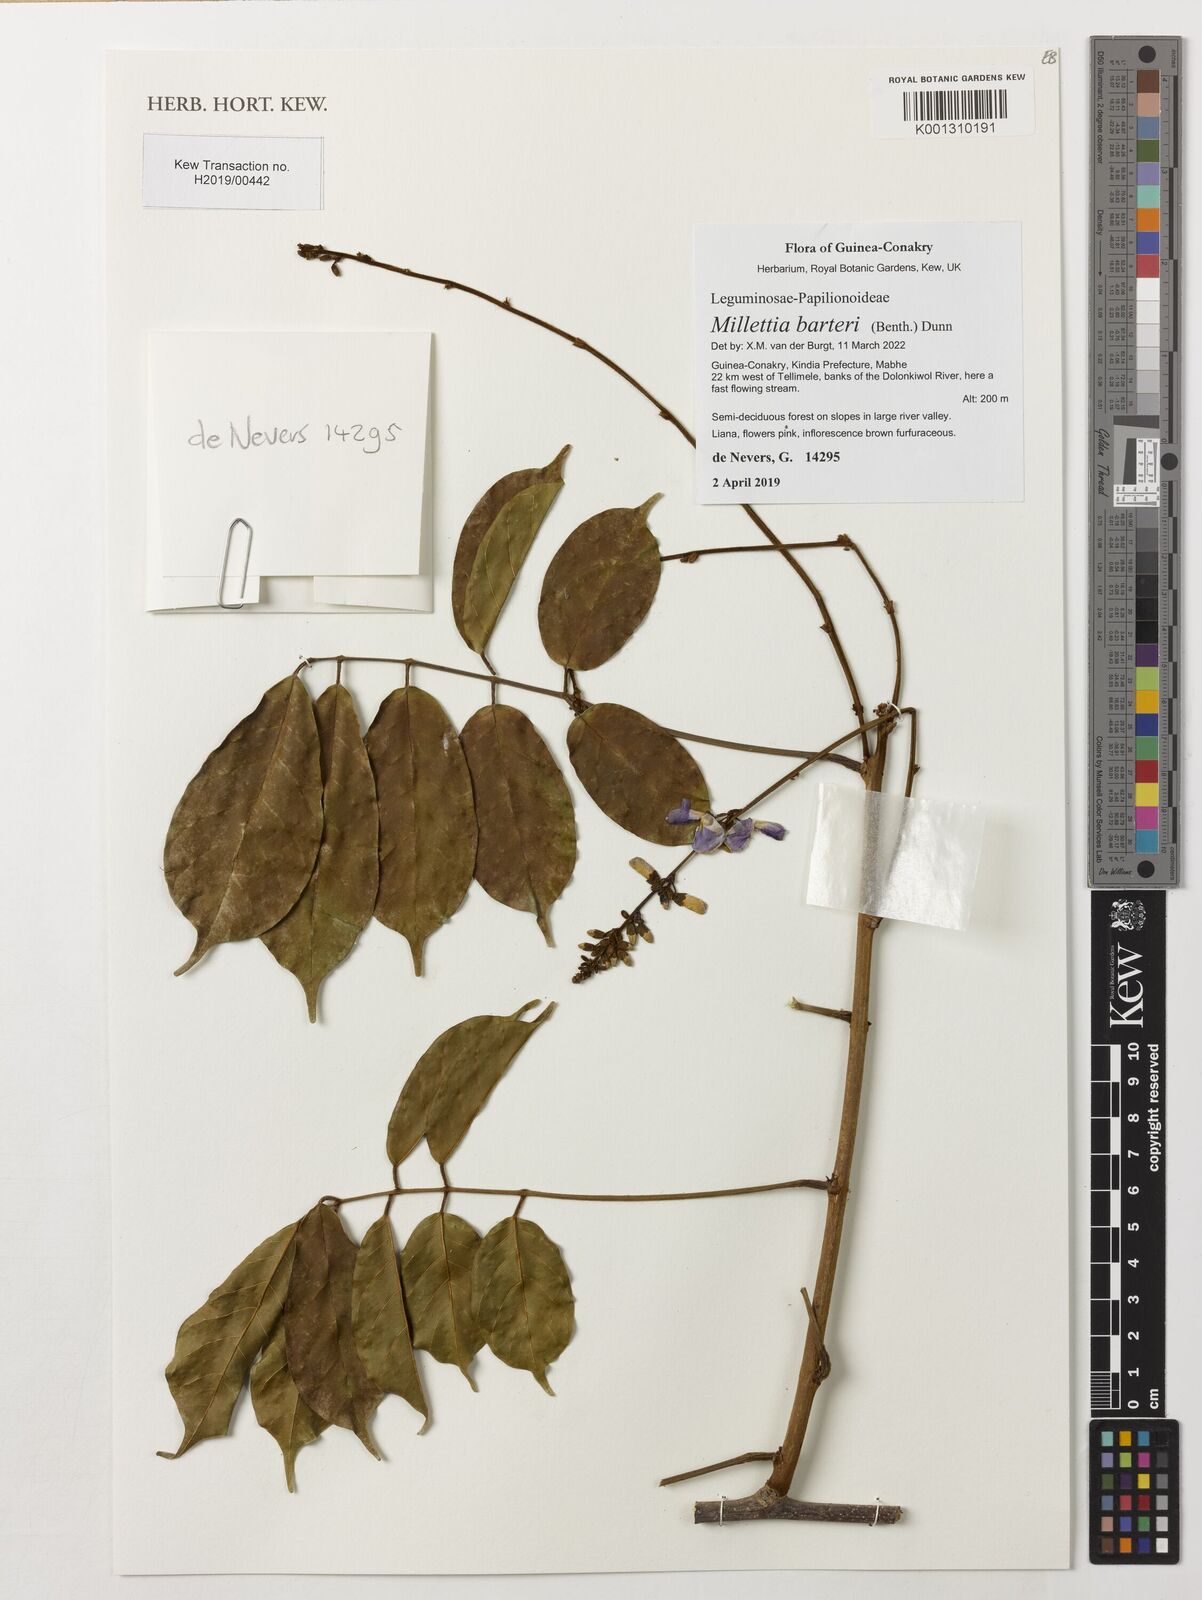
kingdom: Plantae
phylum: Tracheophyta
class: Magnoliopsida
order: Fabales
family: Fabaceae
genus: Millettia
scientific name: Millettia barteri
